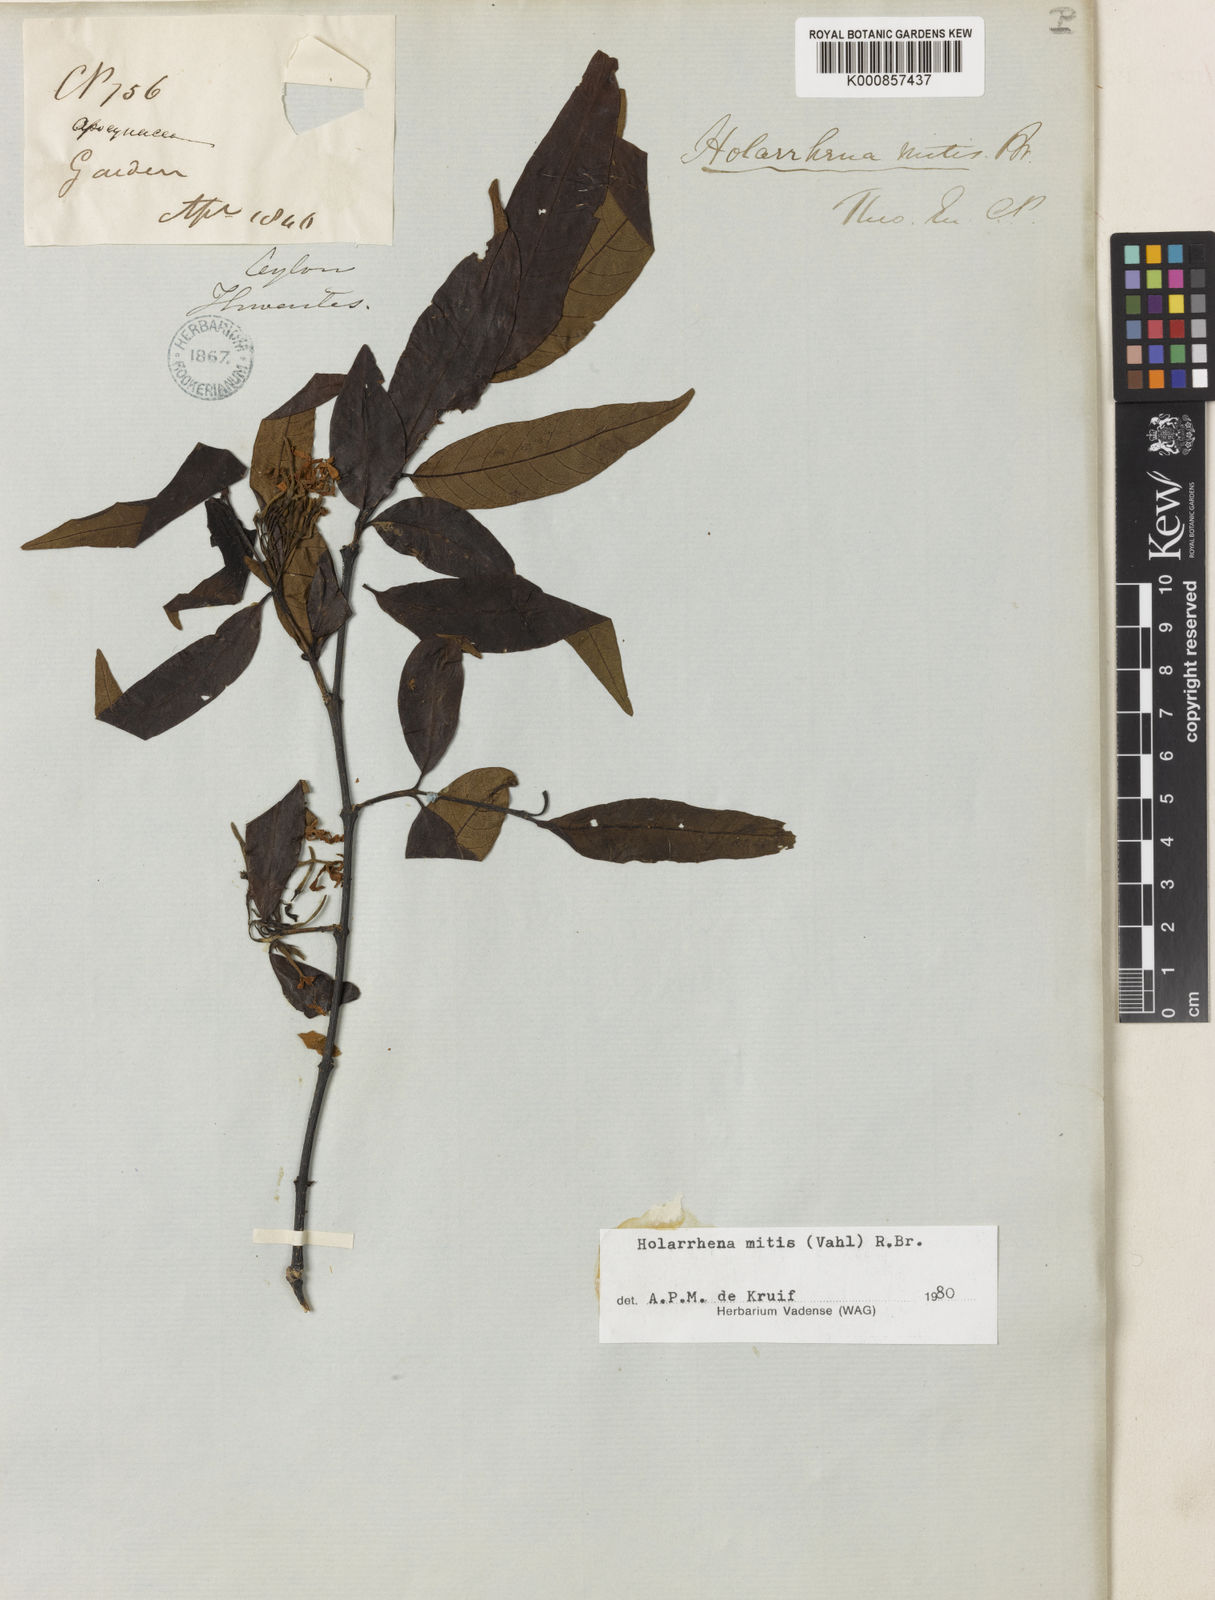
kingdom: Plantae
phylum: Tracheophyta
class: Magnoliopsida
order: Gentianales
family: Apocynaceae
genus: Holarrhena
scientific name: Holarrhena mitis
